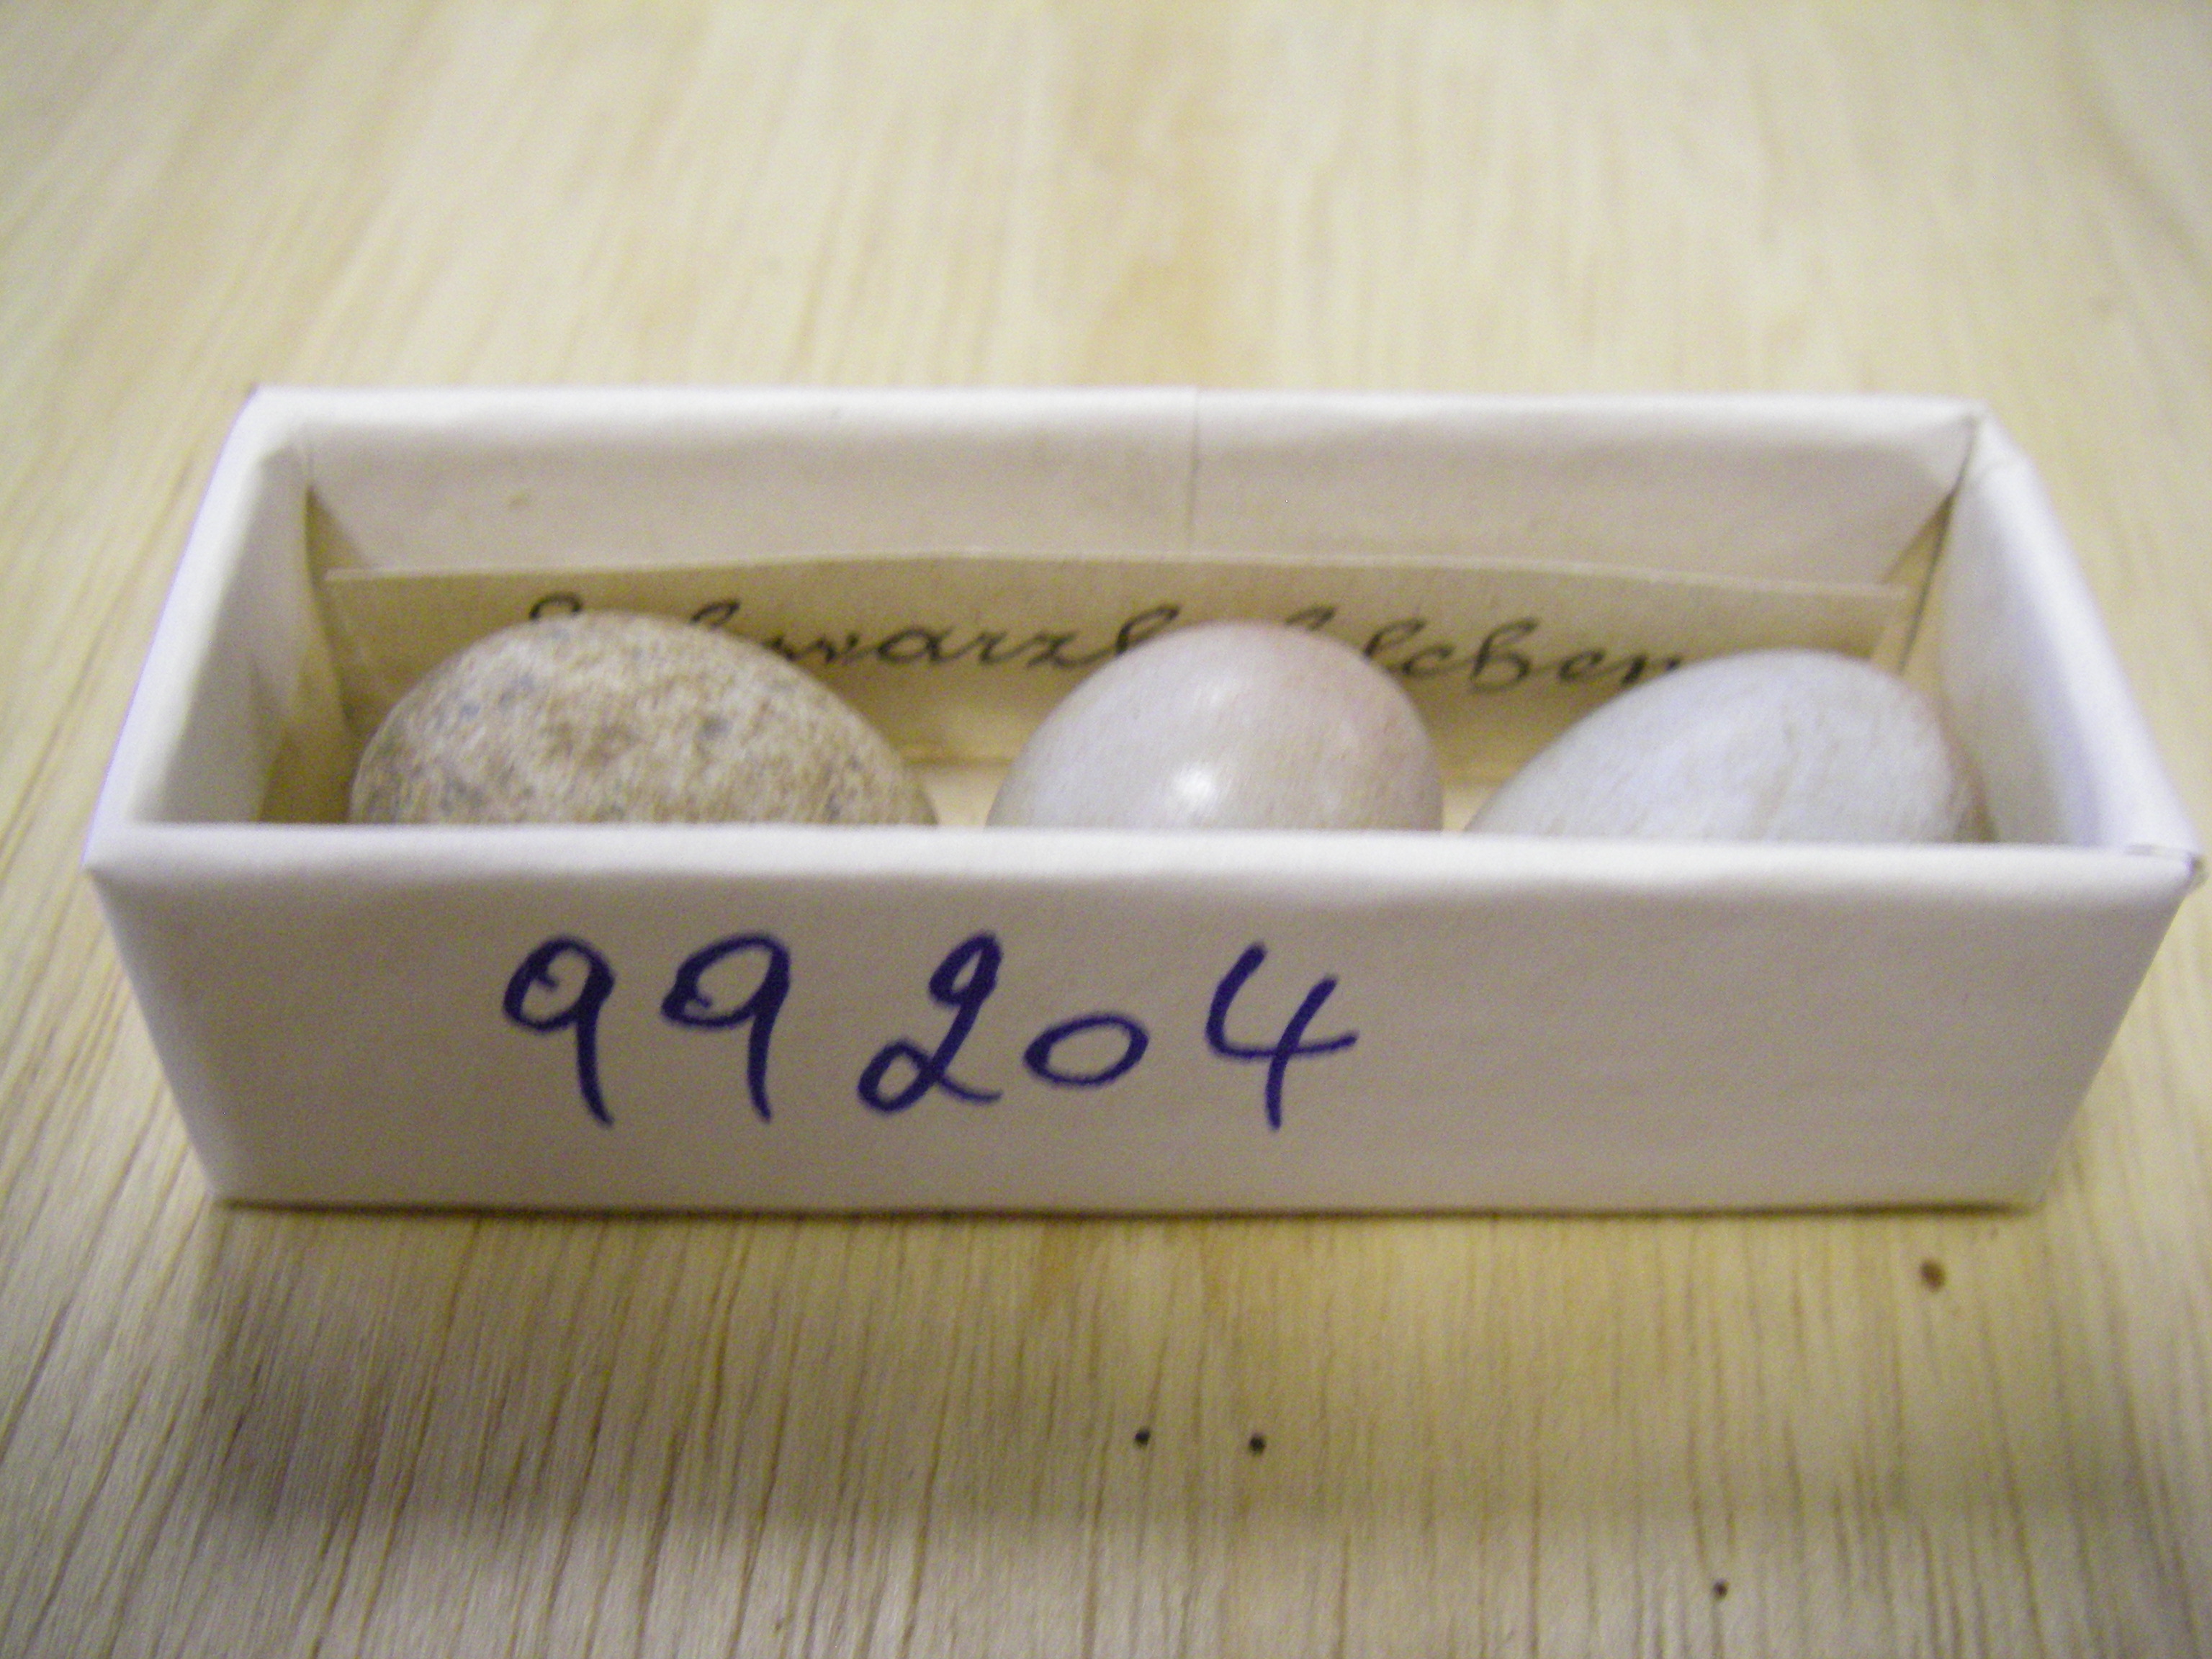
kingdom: Animalia
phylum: Chordata
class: Aves
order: Passeriformes
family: Muscicapidae
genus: Saxicola
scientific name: Saxicola torquatus
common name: African stonechat
